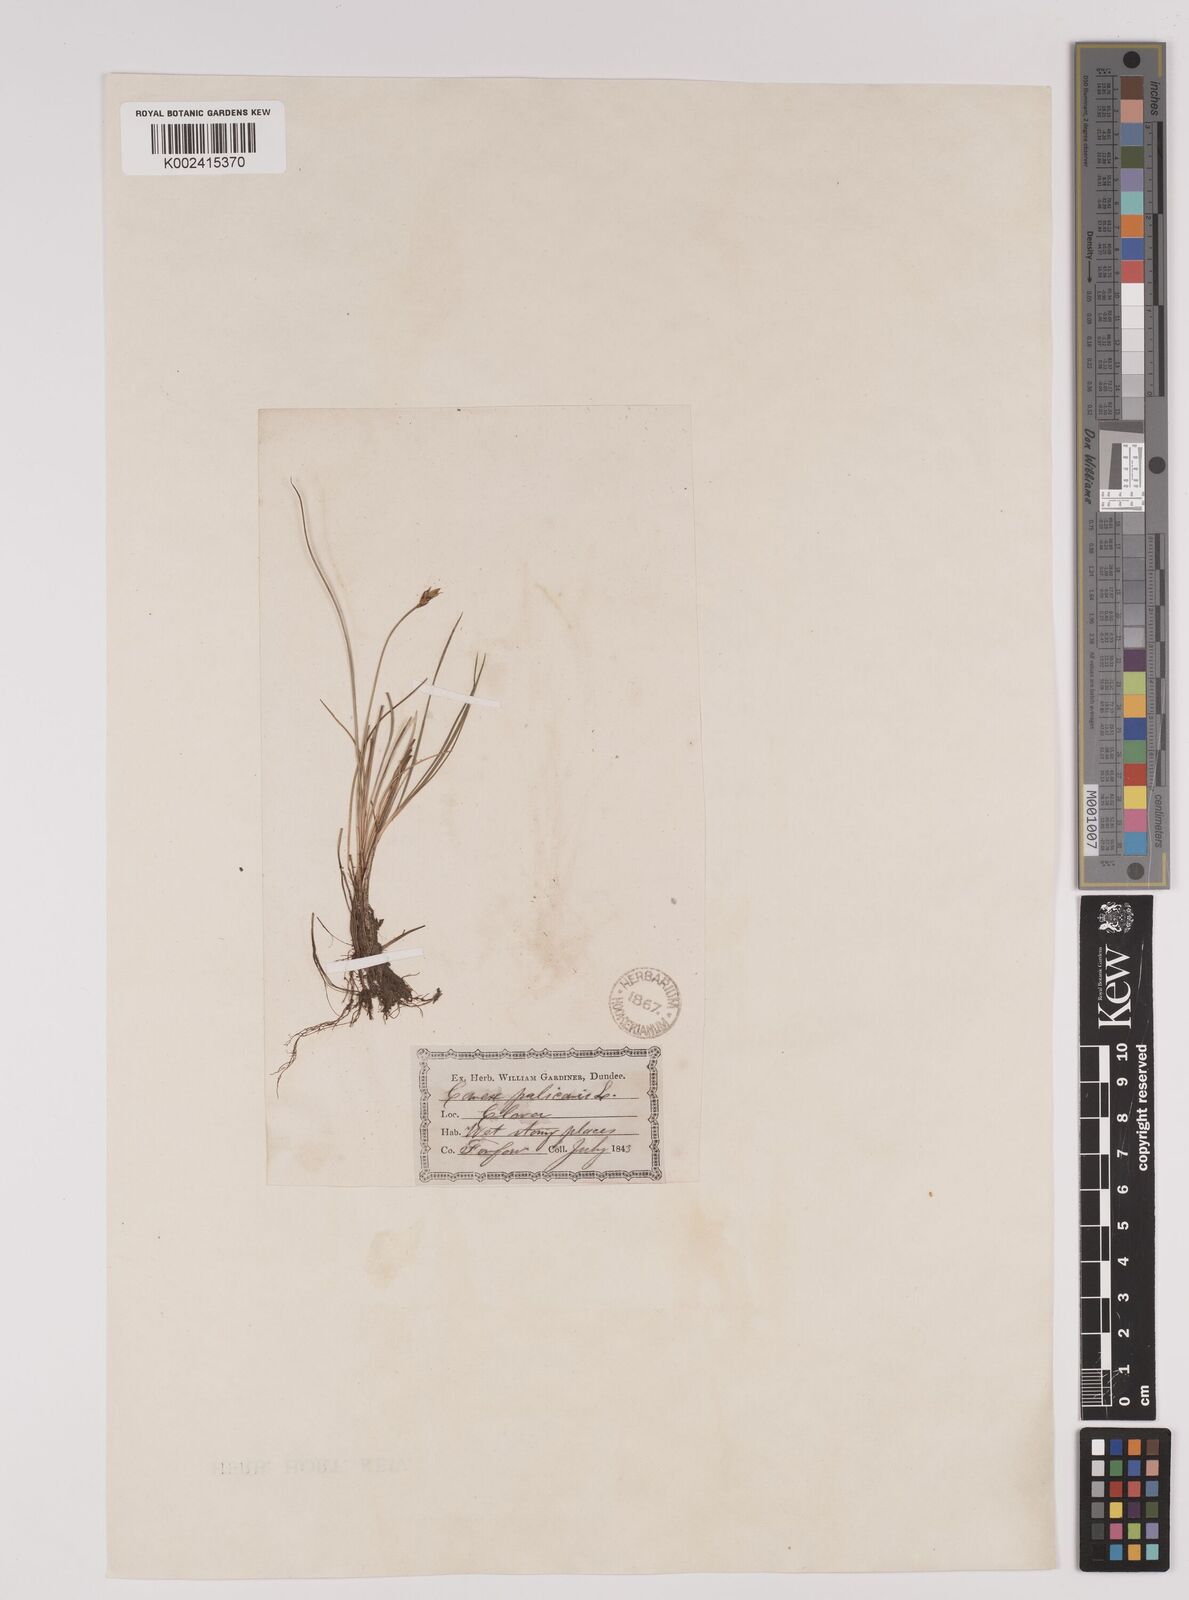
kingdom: Plantae
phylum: Tracheophyta
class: Liliopsida
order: Poales
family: Cyperaceae
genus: Carex
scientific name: Carex pulicaris
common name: Flea sedge
